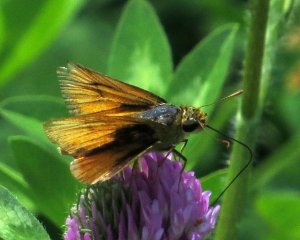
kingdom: Animalia
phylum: Arthropoda
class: Insecta
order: Lepidoptera
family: Hesperiidae
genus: Atrytone
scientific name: Atrytone delaware
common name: Delaware Skipper
